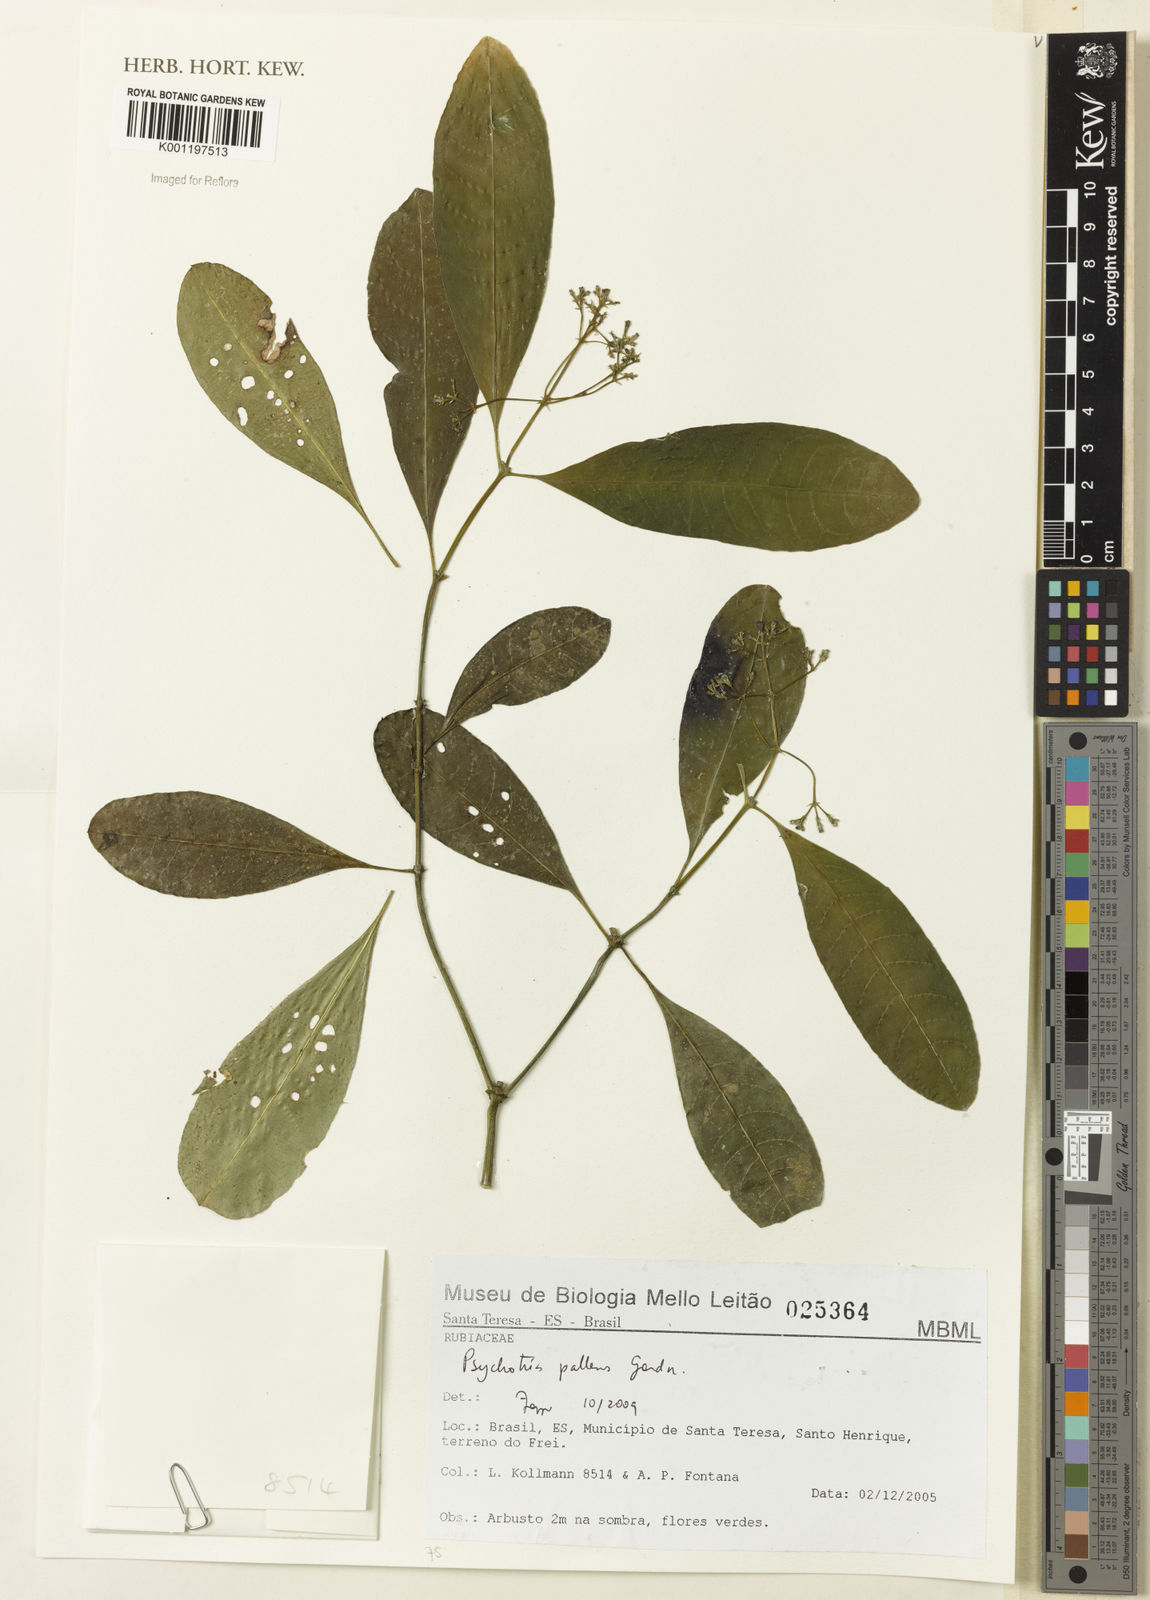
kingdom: Plantae
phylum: Tracheophyta
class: Magnoliopsida
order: Gentianales
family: Rubiaceae
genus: Psychotria
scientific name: Psychotria pallens
